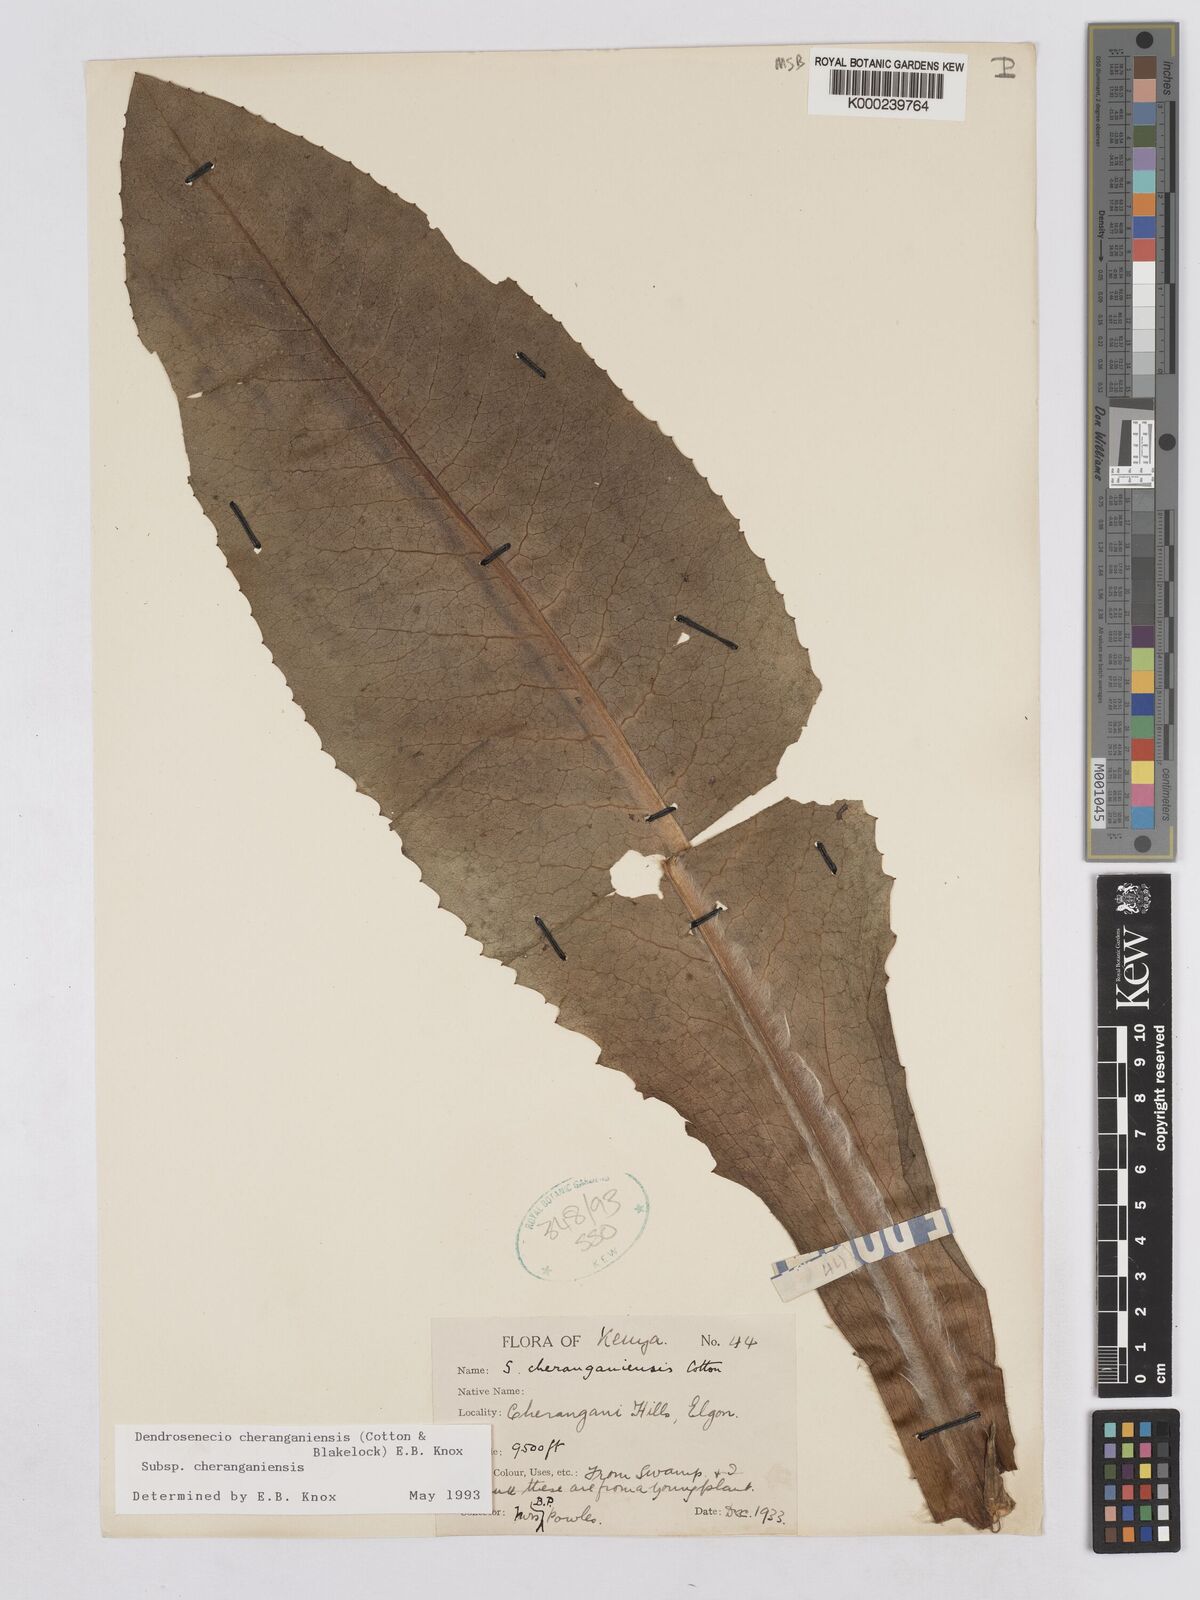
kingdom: Plantae
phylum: Tracheophyta
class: Magnoliopsida
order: Asterales
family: Asteraceae
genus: Dendrosenecio
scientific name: Dendrosenecio cheranganiensis
